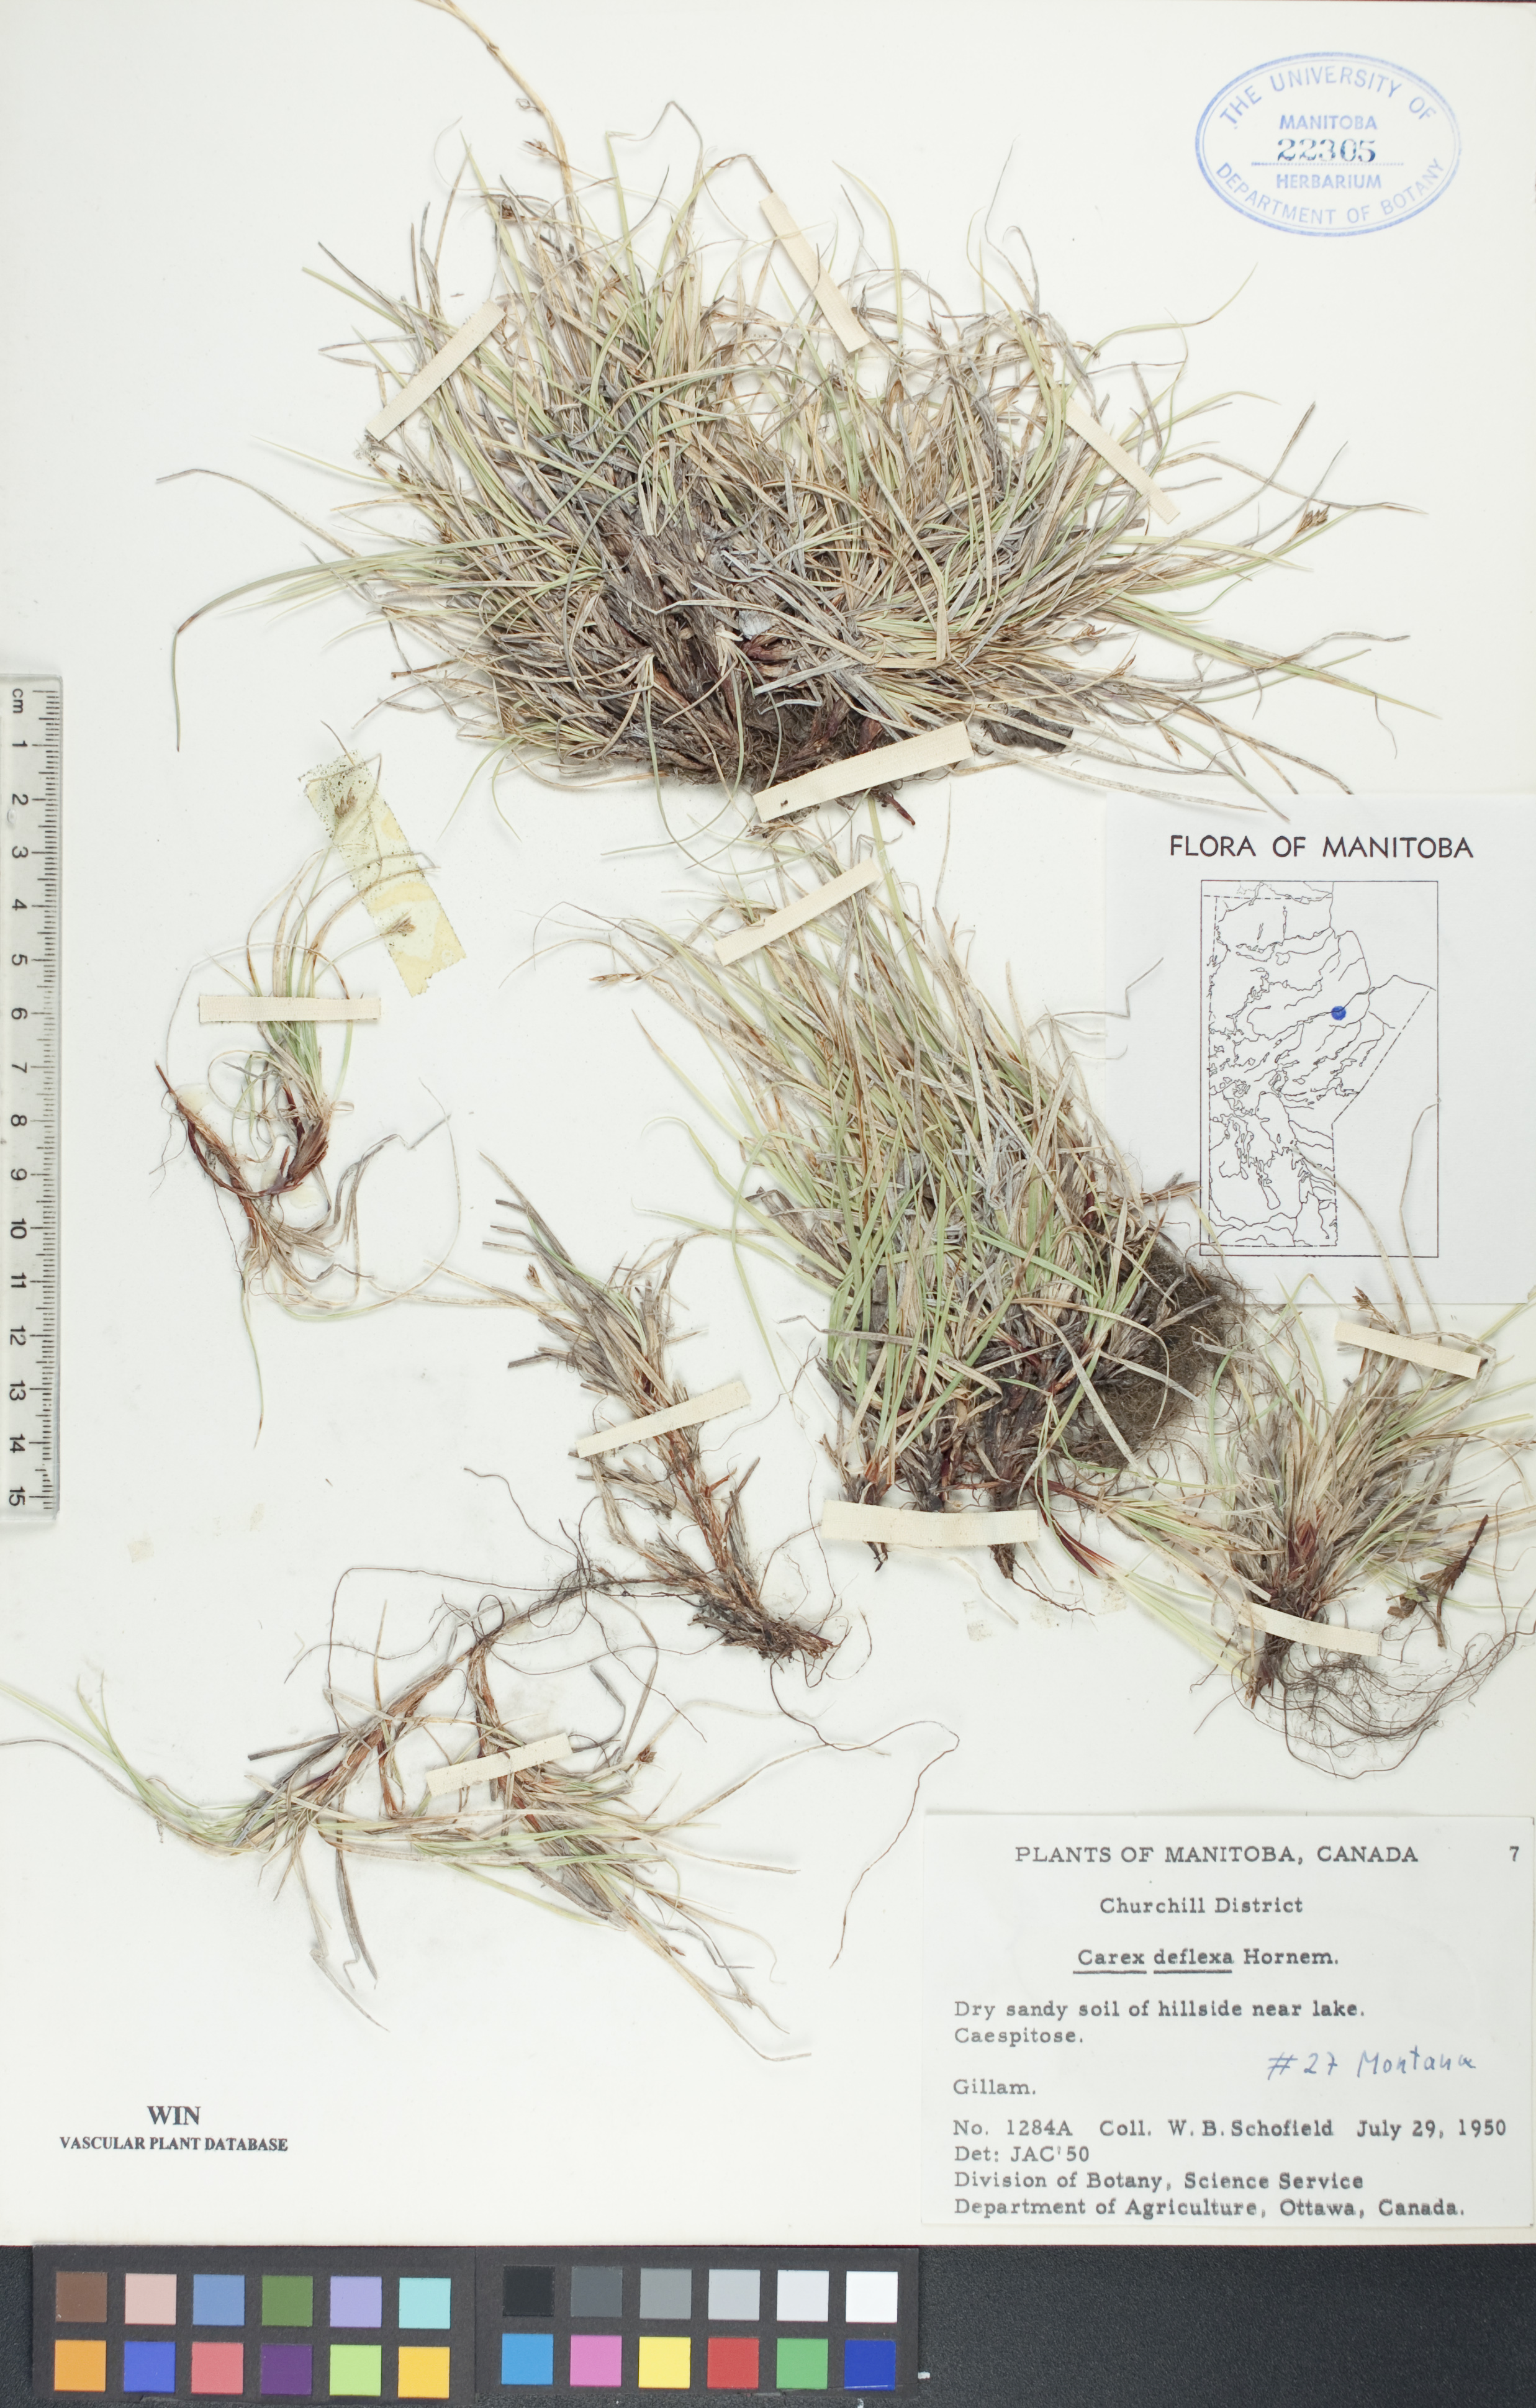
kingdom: Plantae
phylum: Tracheophyta
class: Liliopsida
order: Poales
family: Cyperaceae
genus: Carex
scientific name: Carex deflexa
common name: Bent northern sedge
